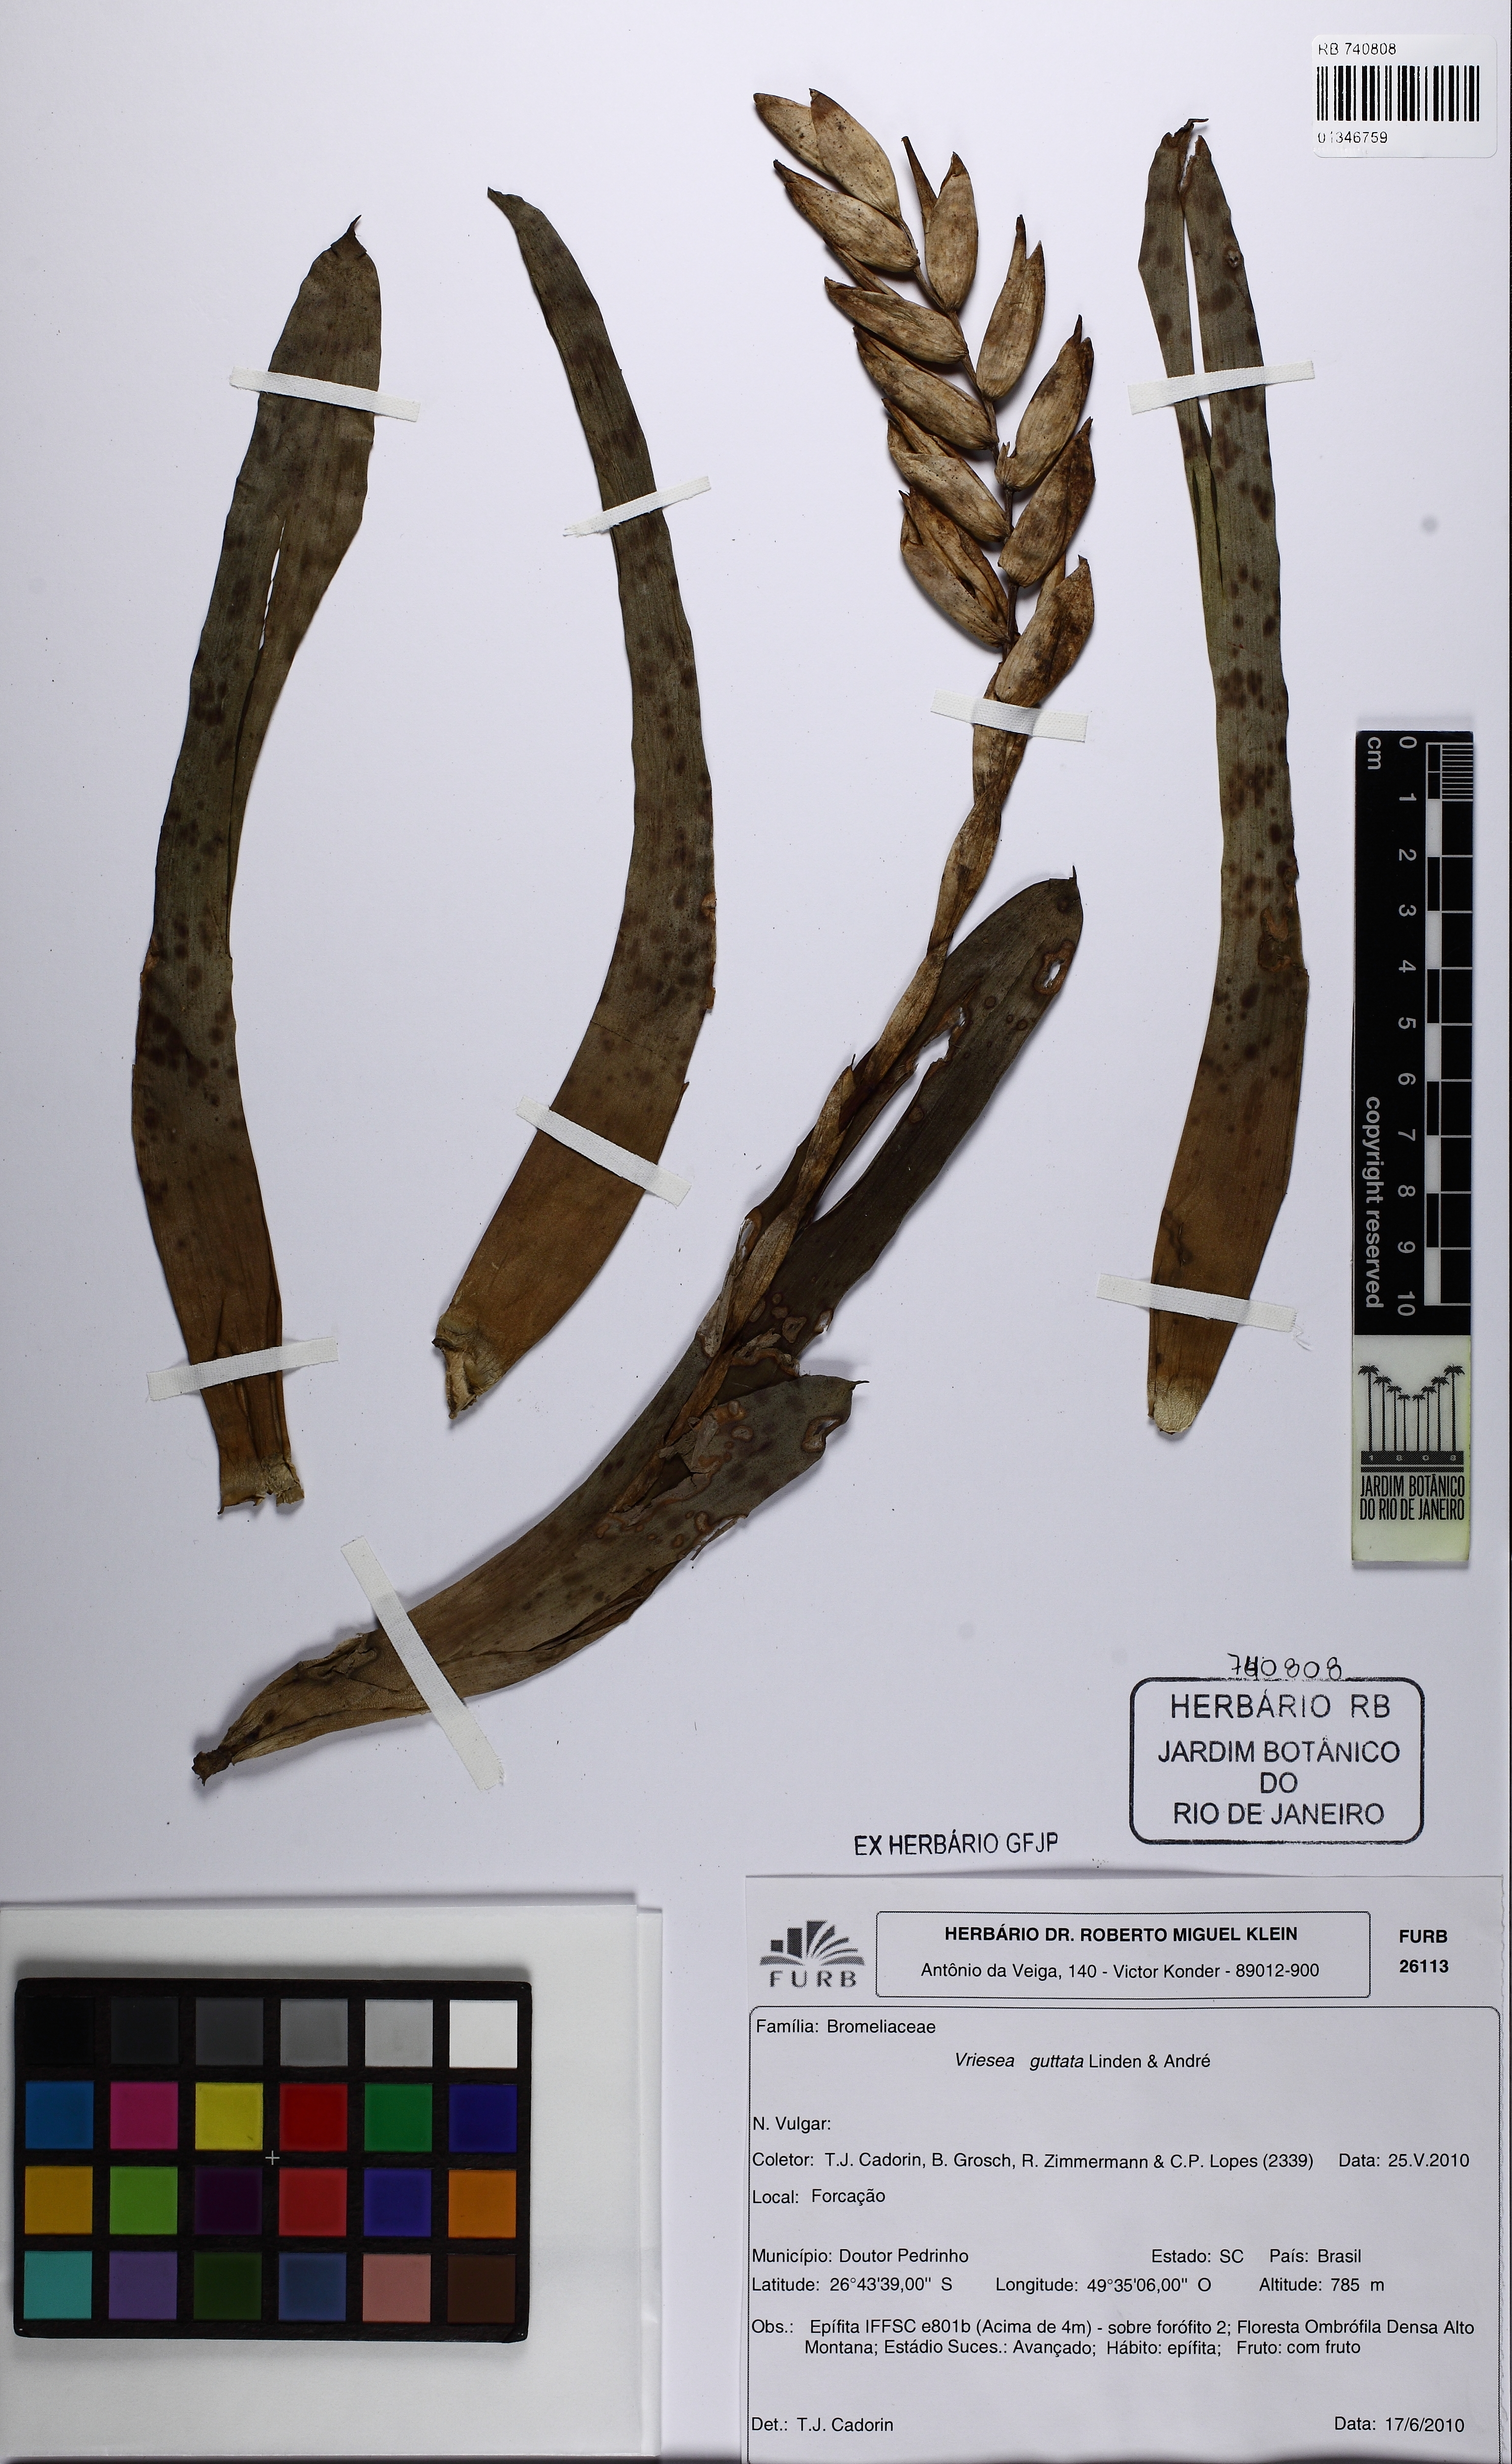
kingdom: Plantae
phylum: Tracheophyta
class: Liliopsida
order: Poales
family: Bromeliaceae
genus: Vriesea
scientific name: Vriesea guttata
